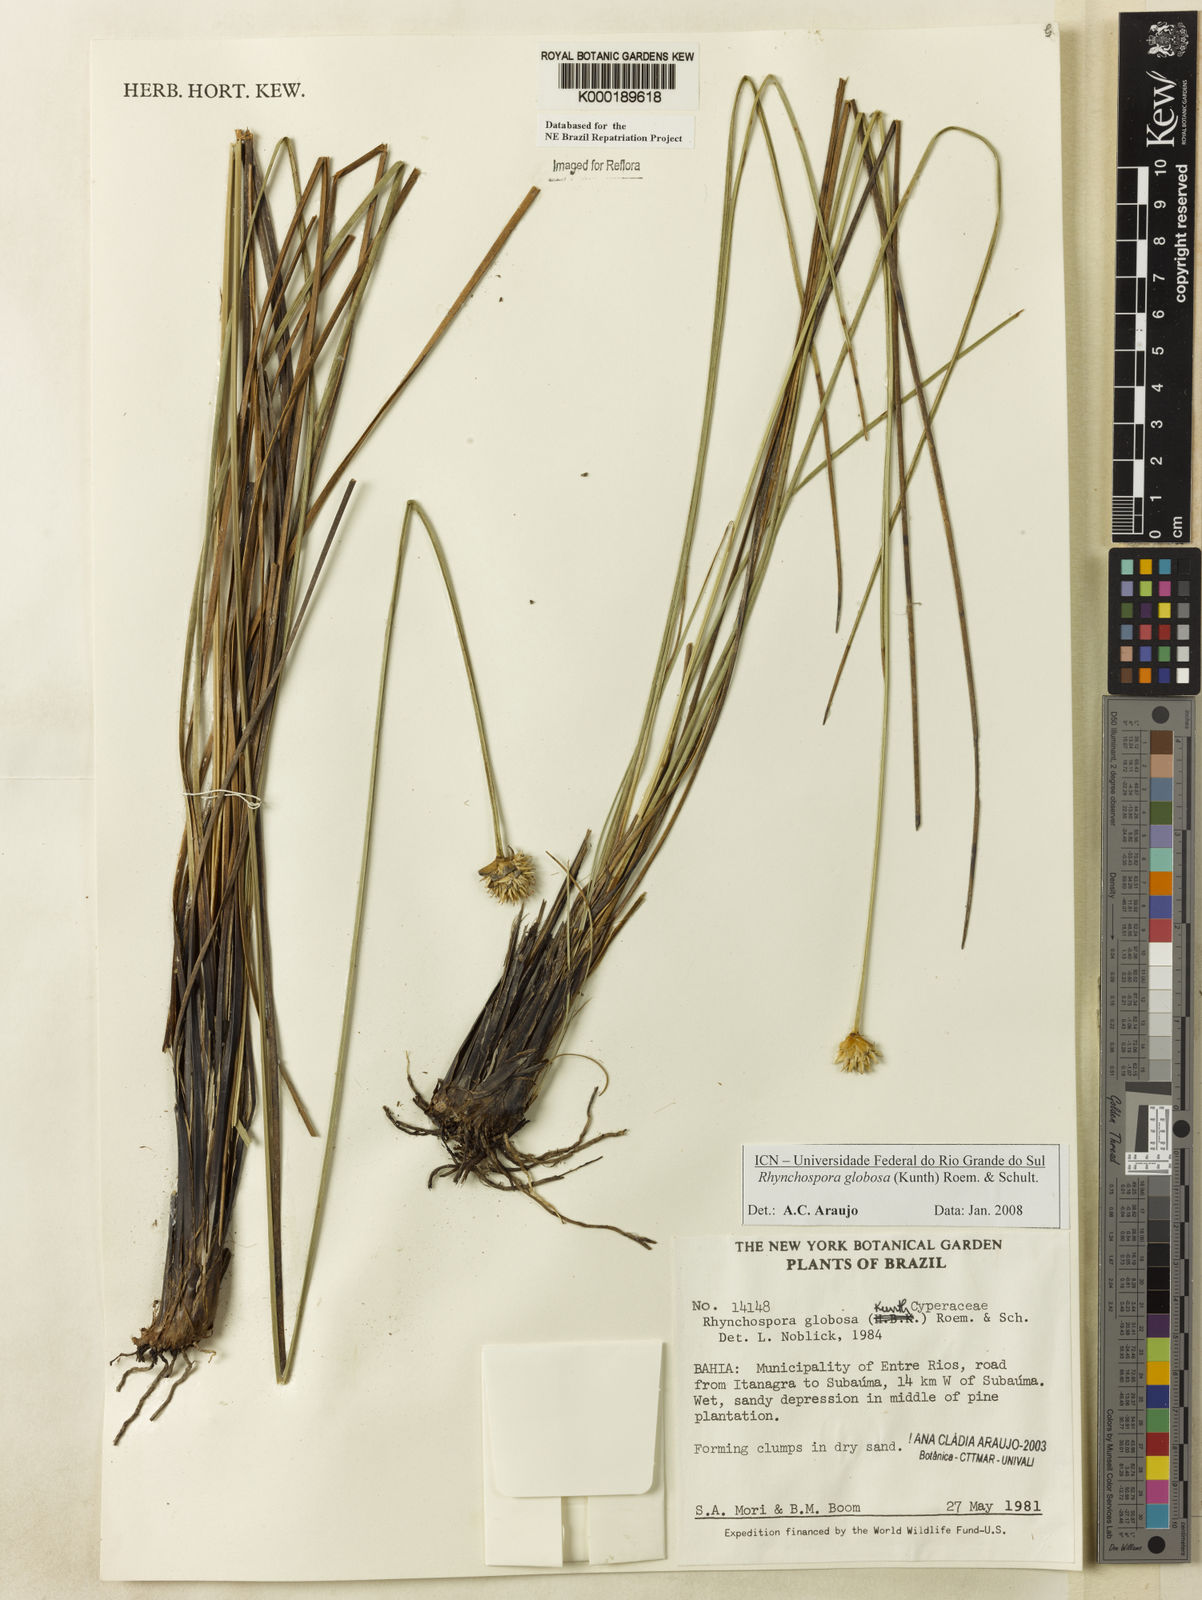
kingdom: Plantae
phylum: Tracheophyta
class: Liliopsida
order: Poales
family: Cyperaceae
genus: Rhynchospora
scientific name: Rhynchospora globosa
